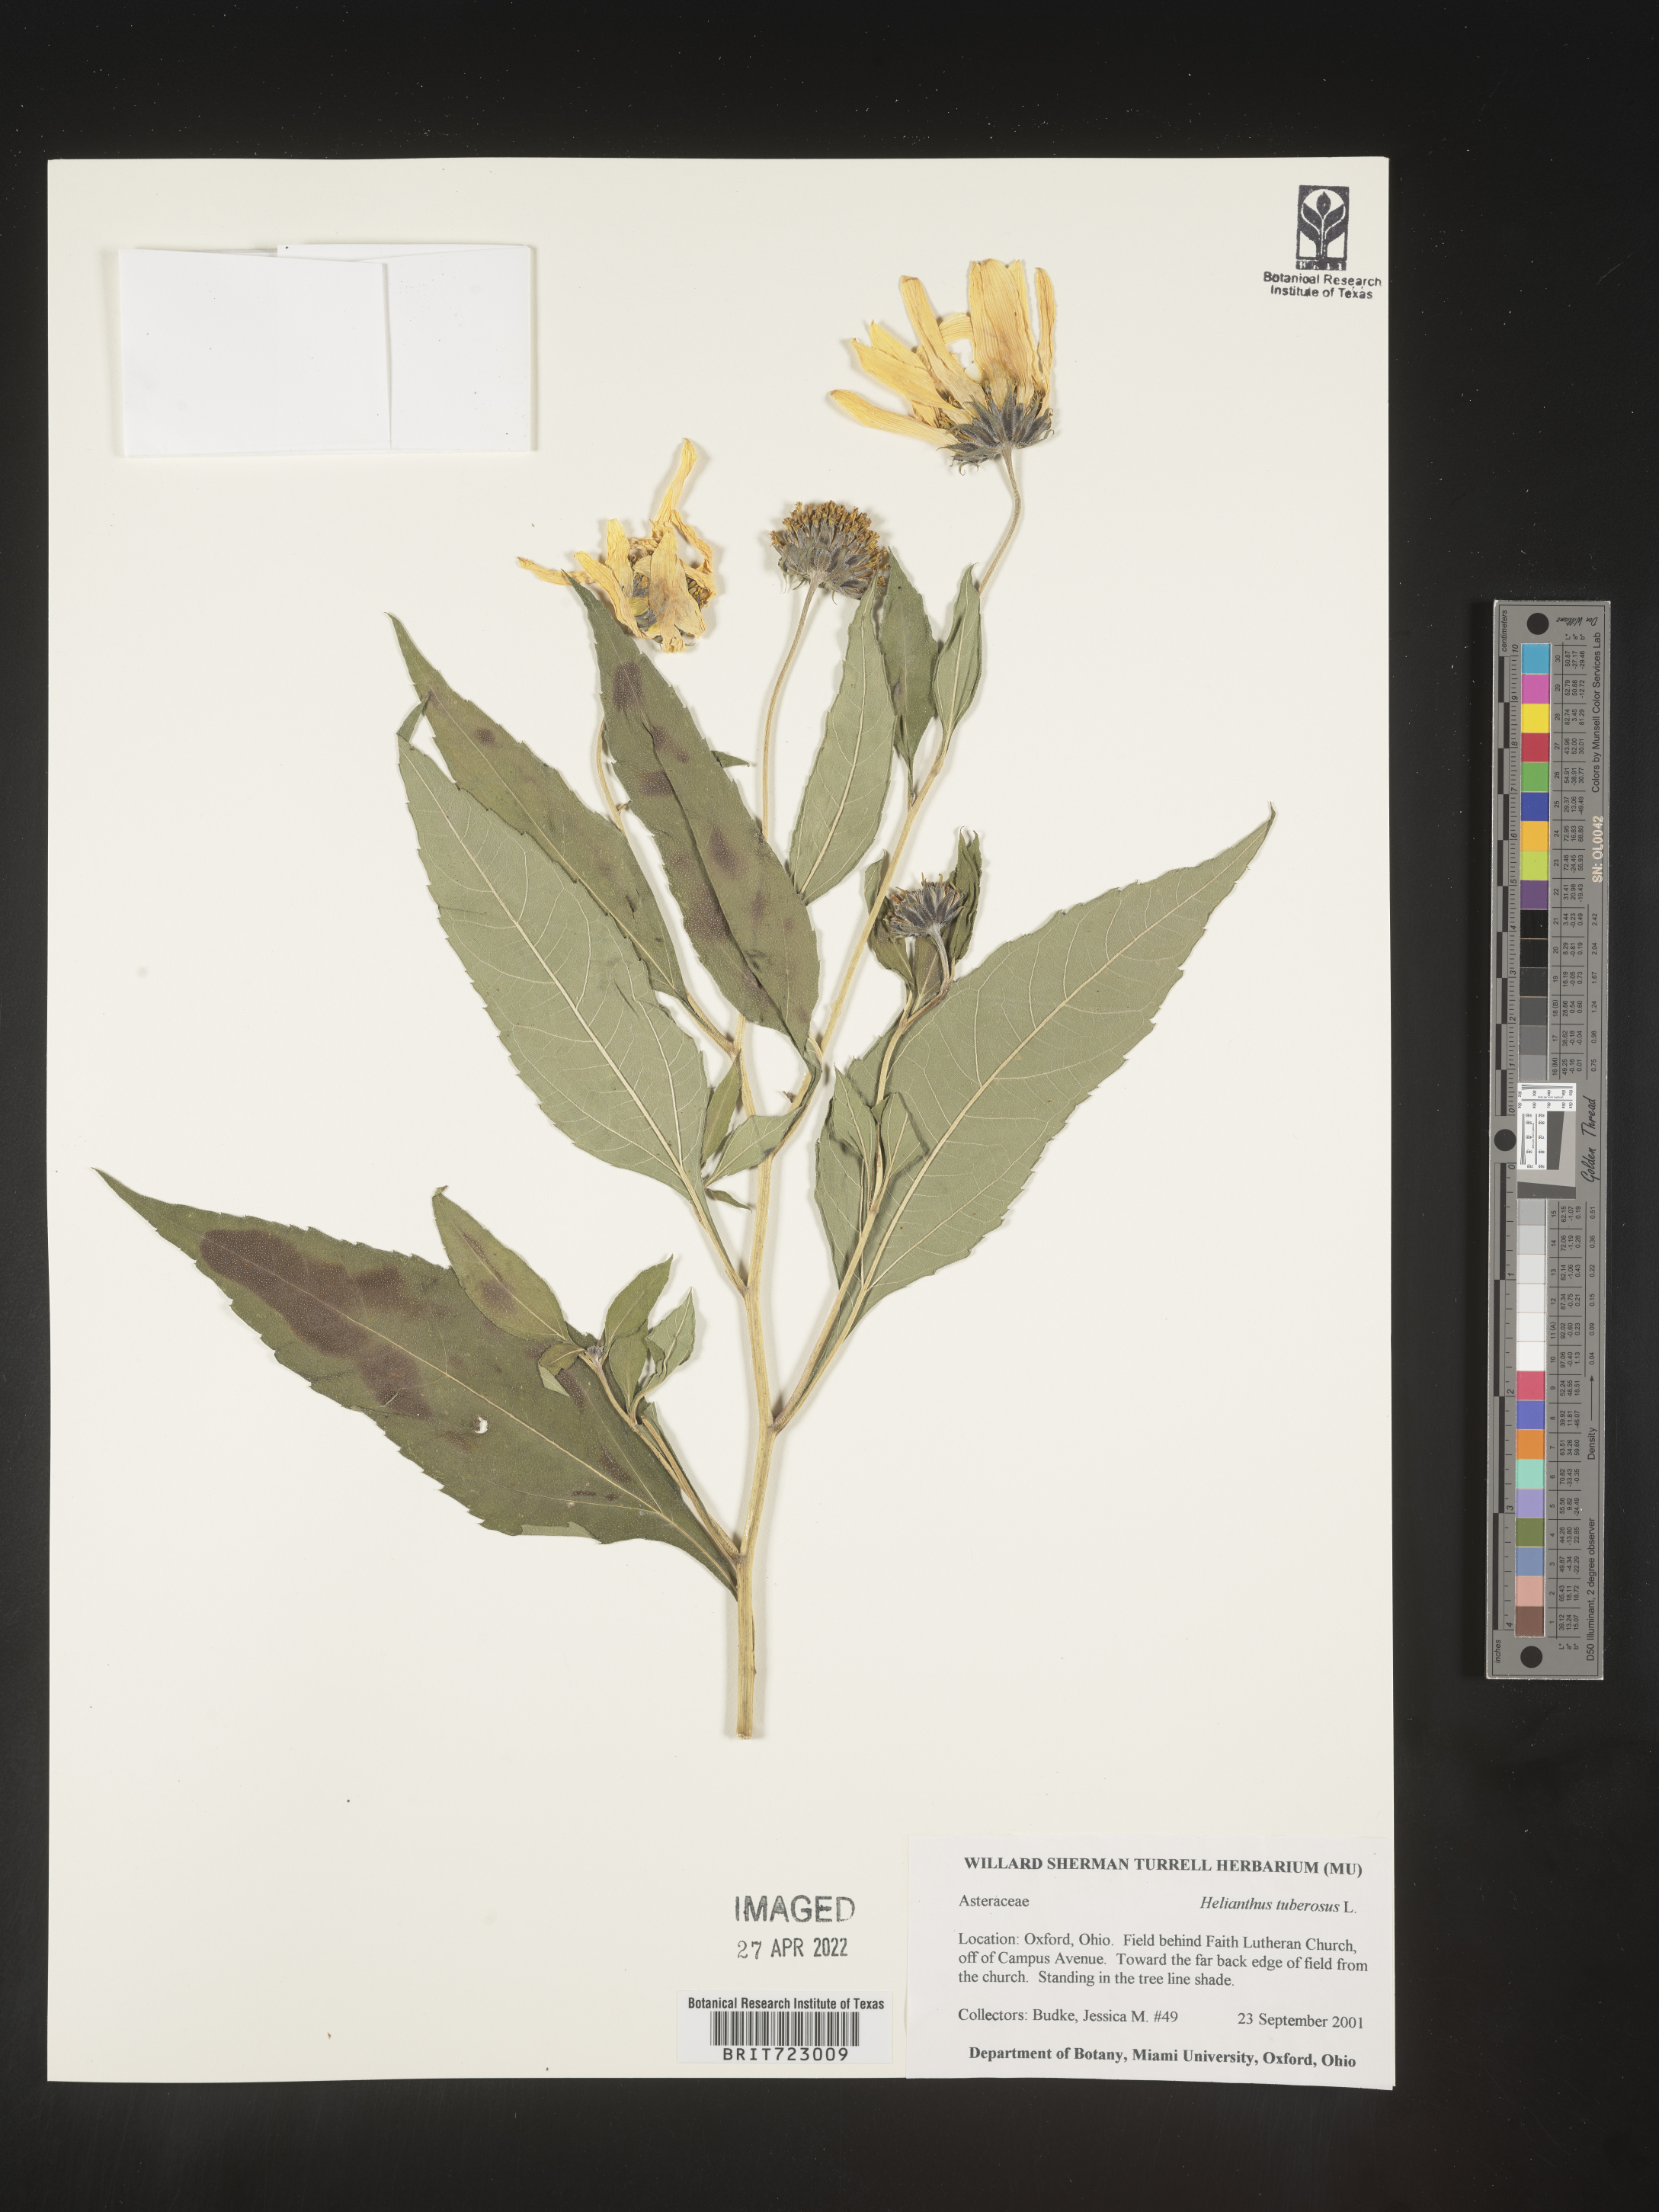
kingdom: Plantae
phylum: Tracheophyta
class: Magnoliopsida
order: Asterales
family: Asteraceae
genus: Helianthus
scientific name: Helianthus tuberosus
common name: Jerusalem artichoke
